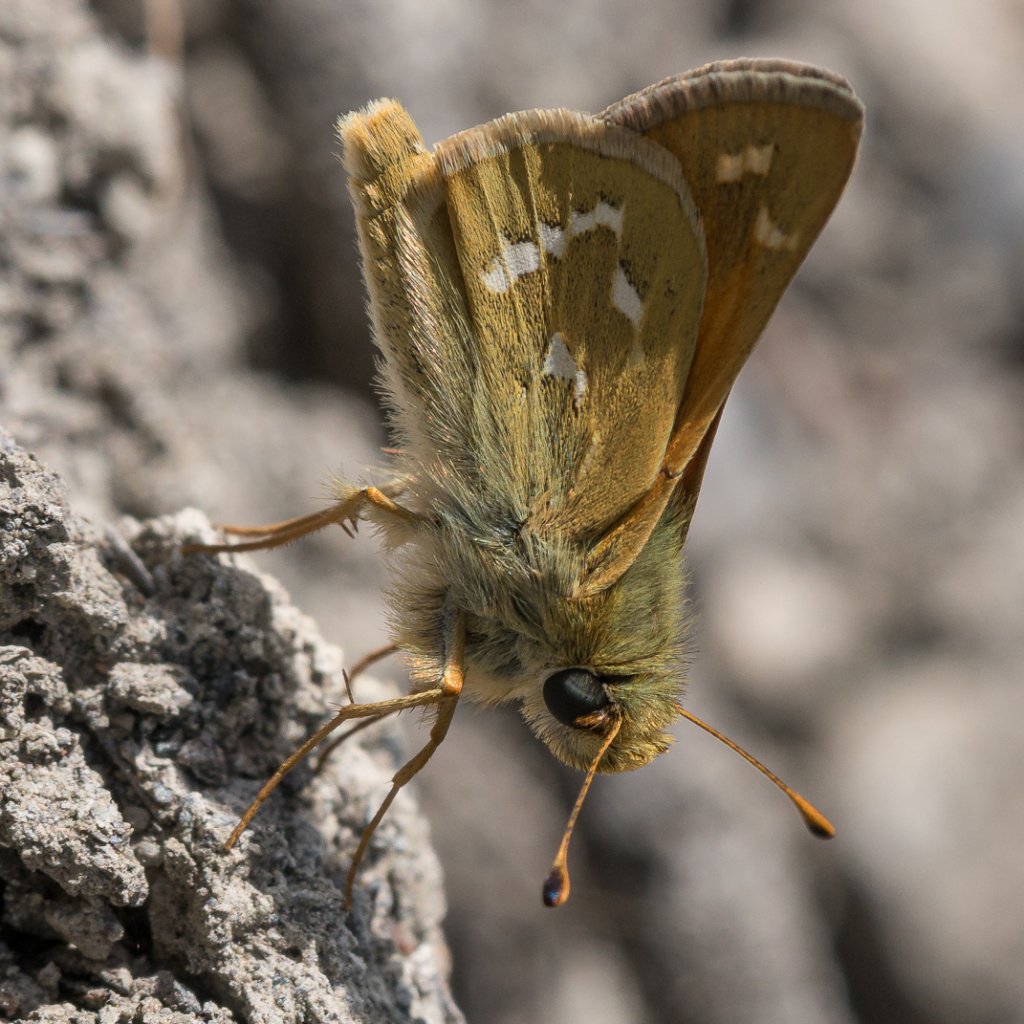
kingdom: Animalia
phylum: Arthropoda
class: Insecta
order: Lepidoptera
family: Hesperiidae
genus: Hesperia
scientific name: Hesperia comma
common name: Western Branded Skipper
